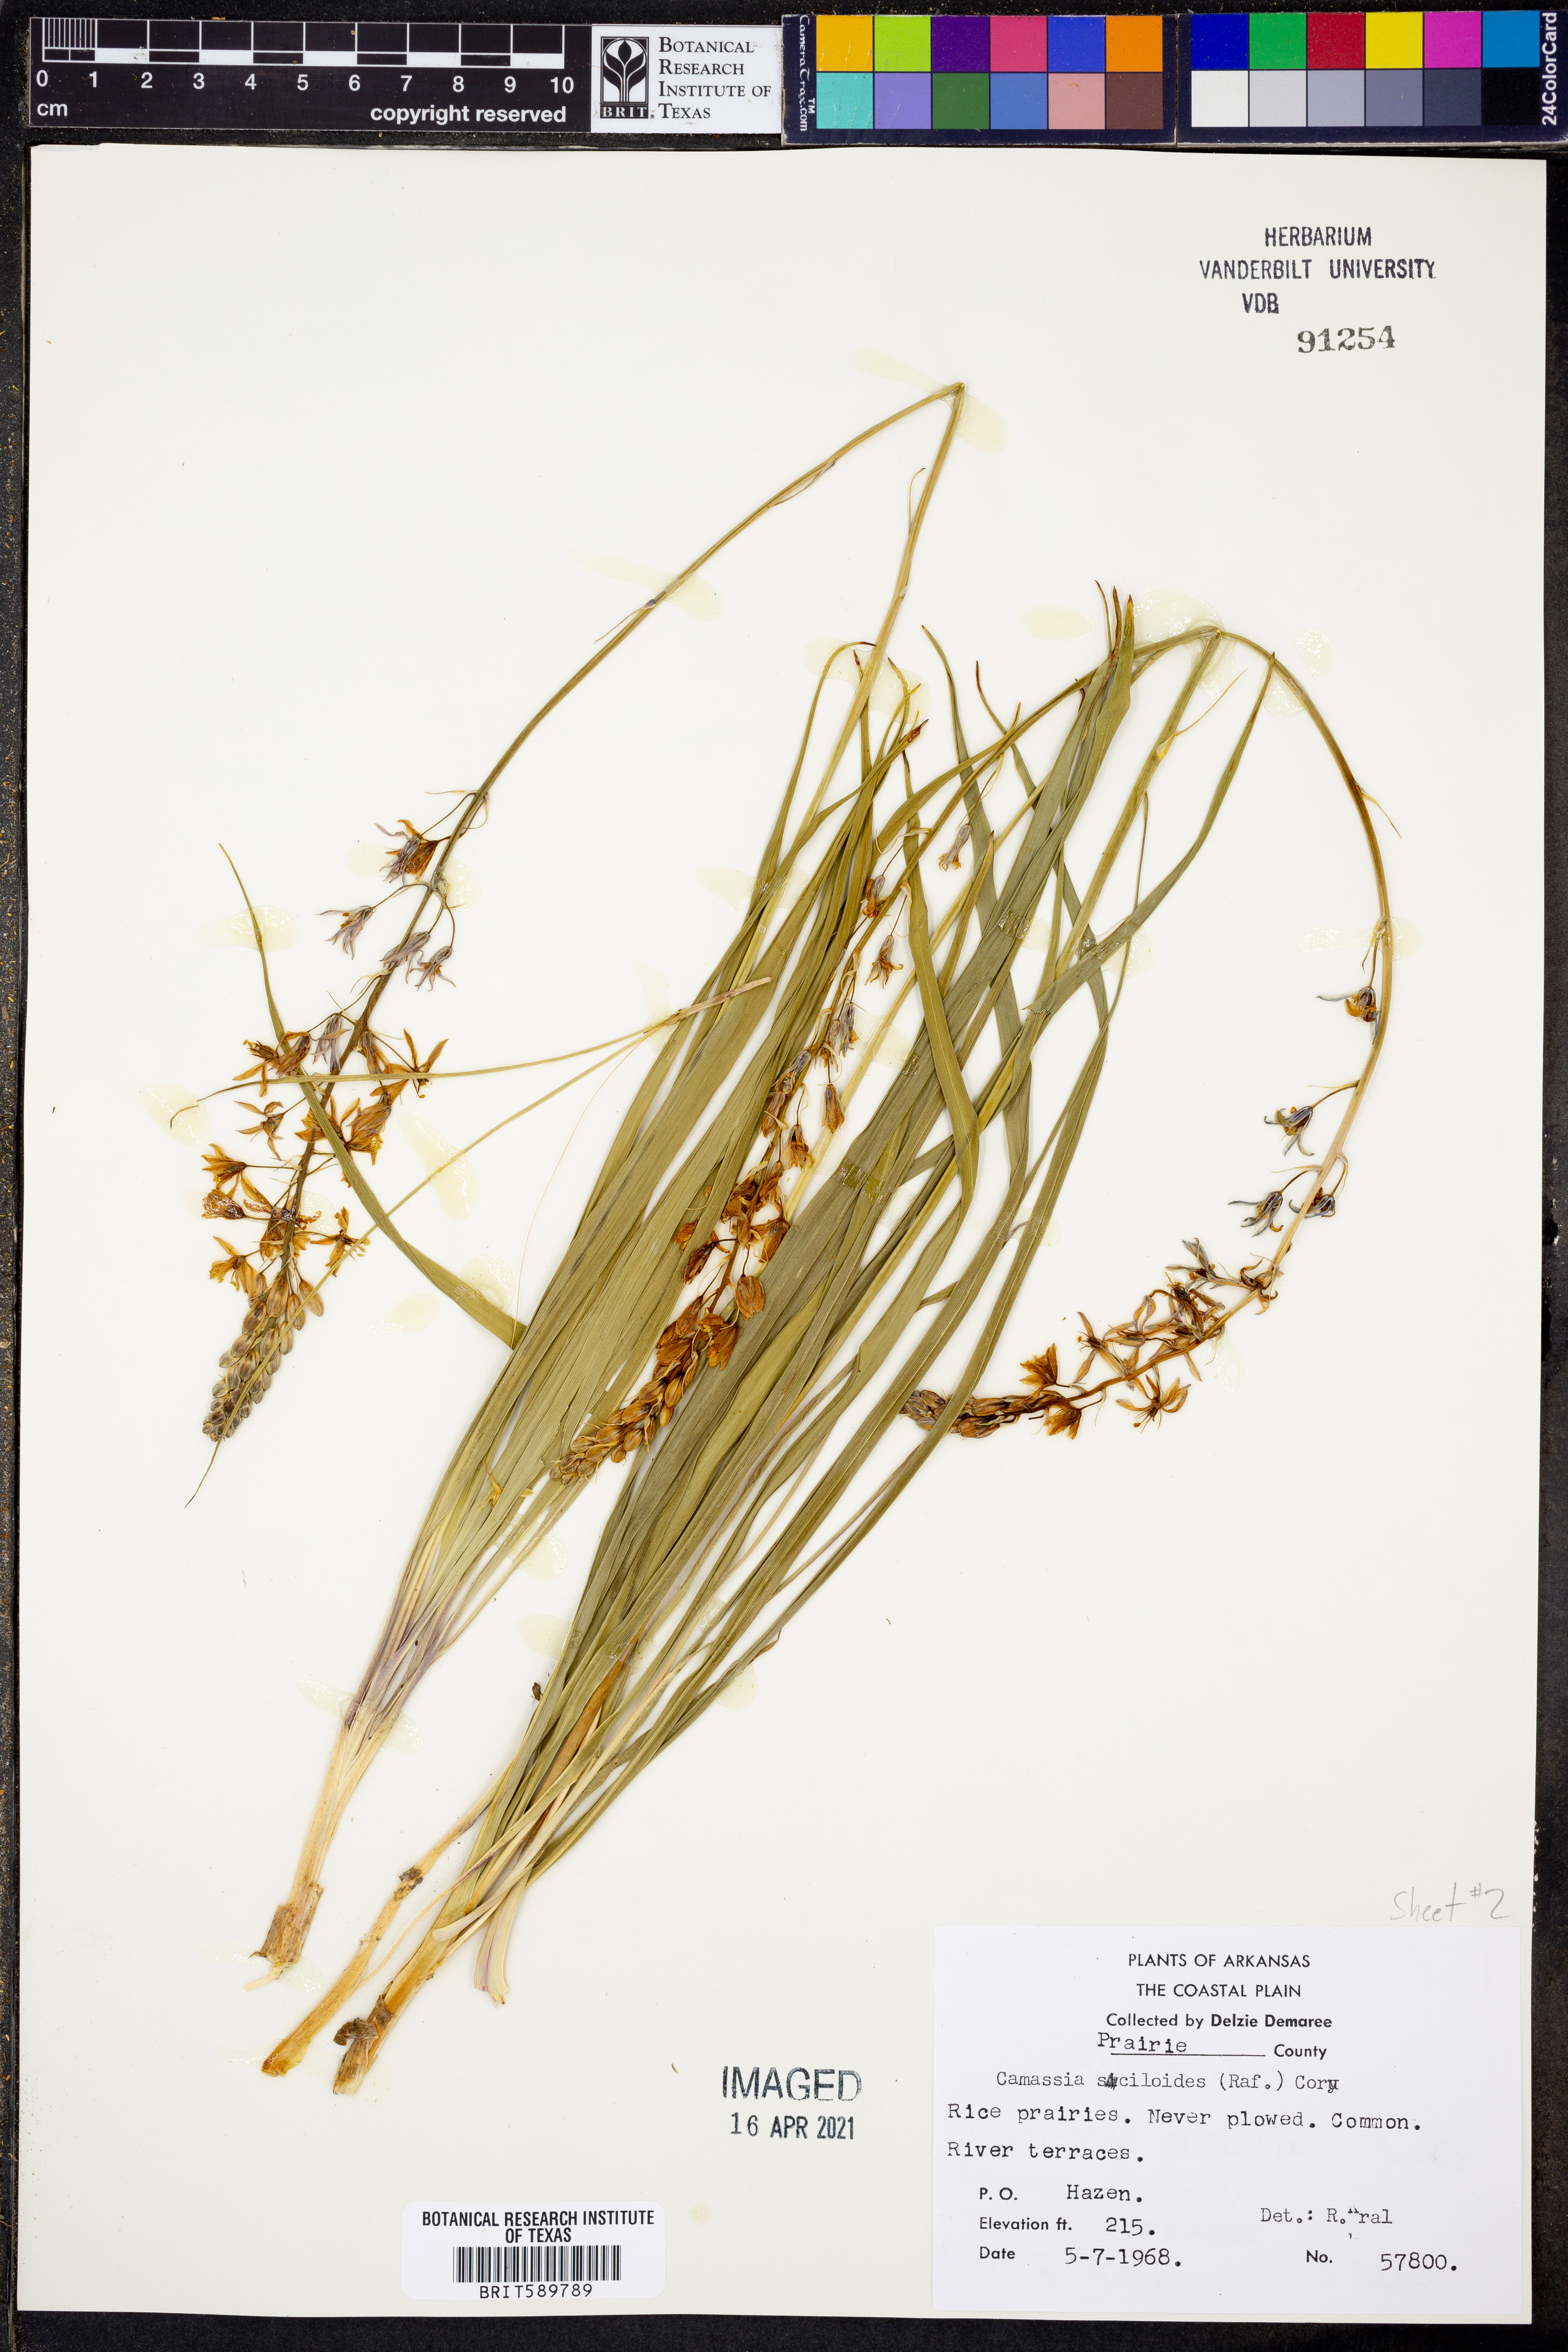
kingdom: Plantae
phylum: Tracheophyta
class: Liliopsida
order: Asparagales
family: Asparagaceae
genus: Camassia
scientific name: Camassia scilloides
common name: Wild hyacinth
